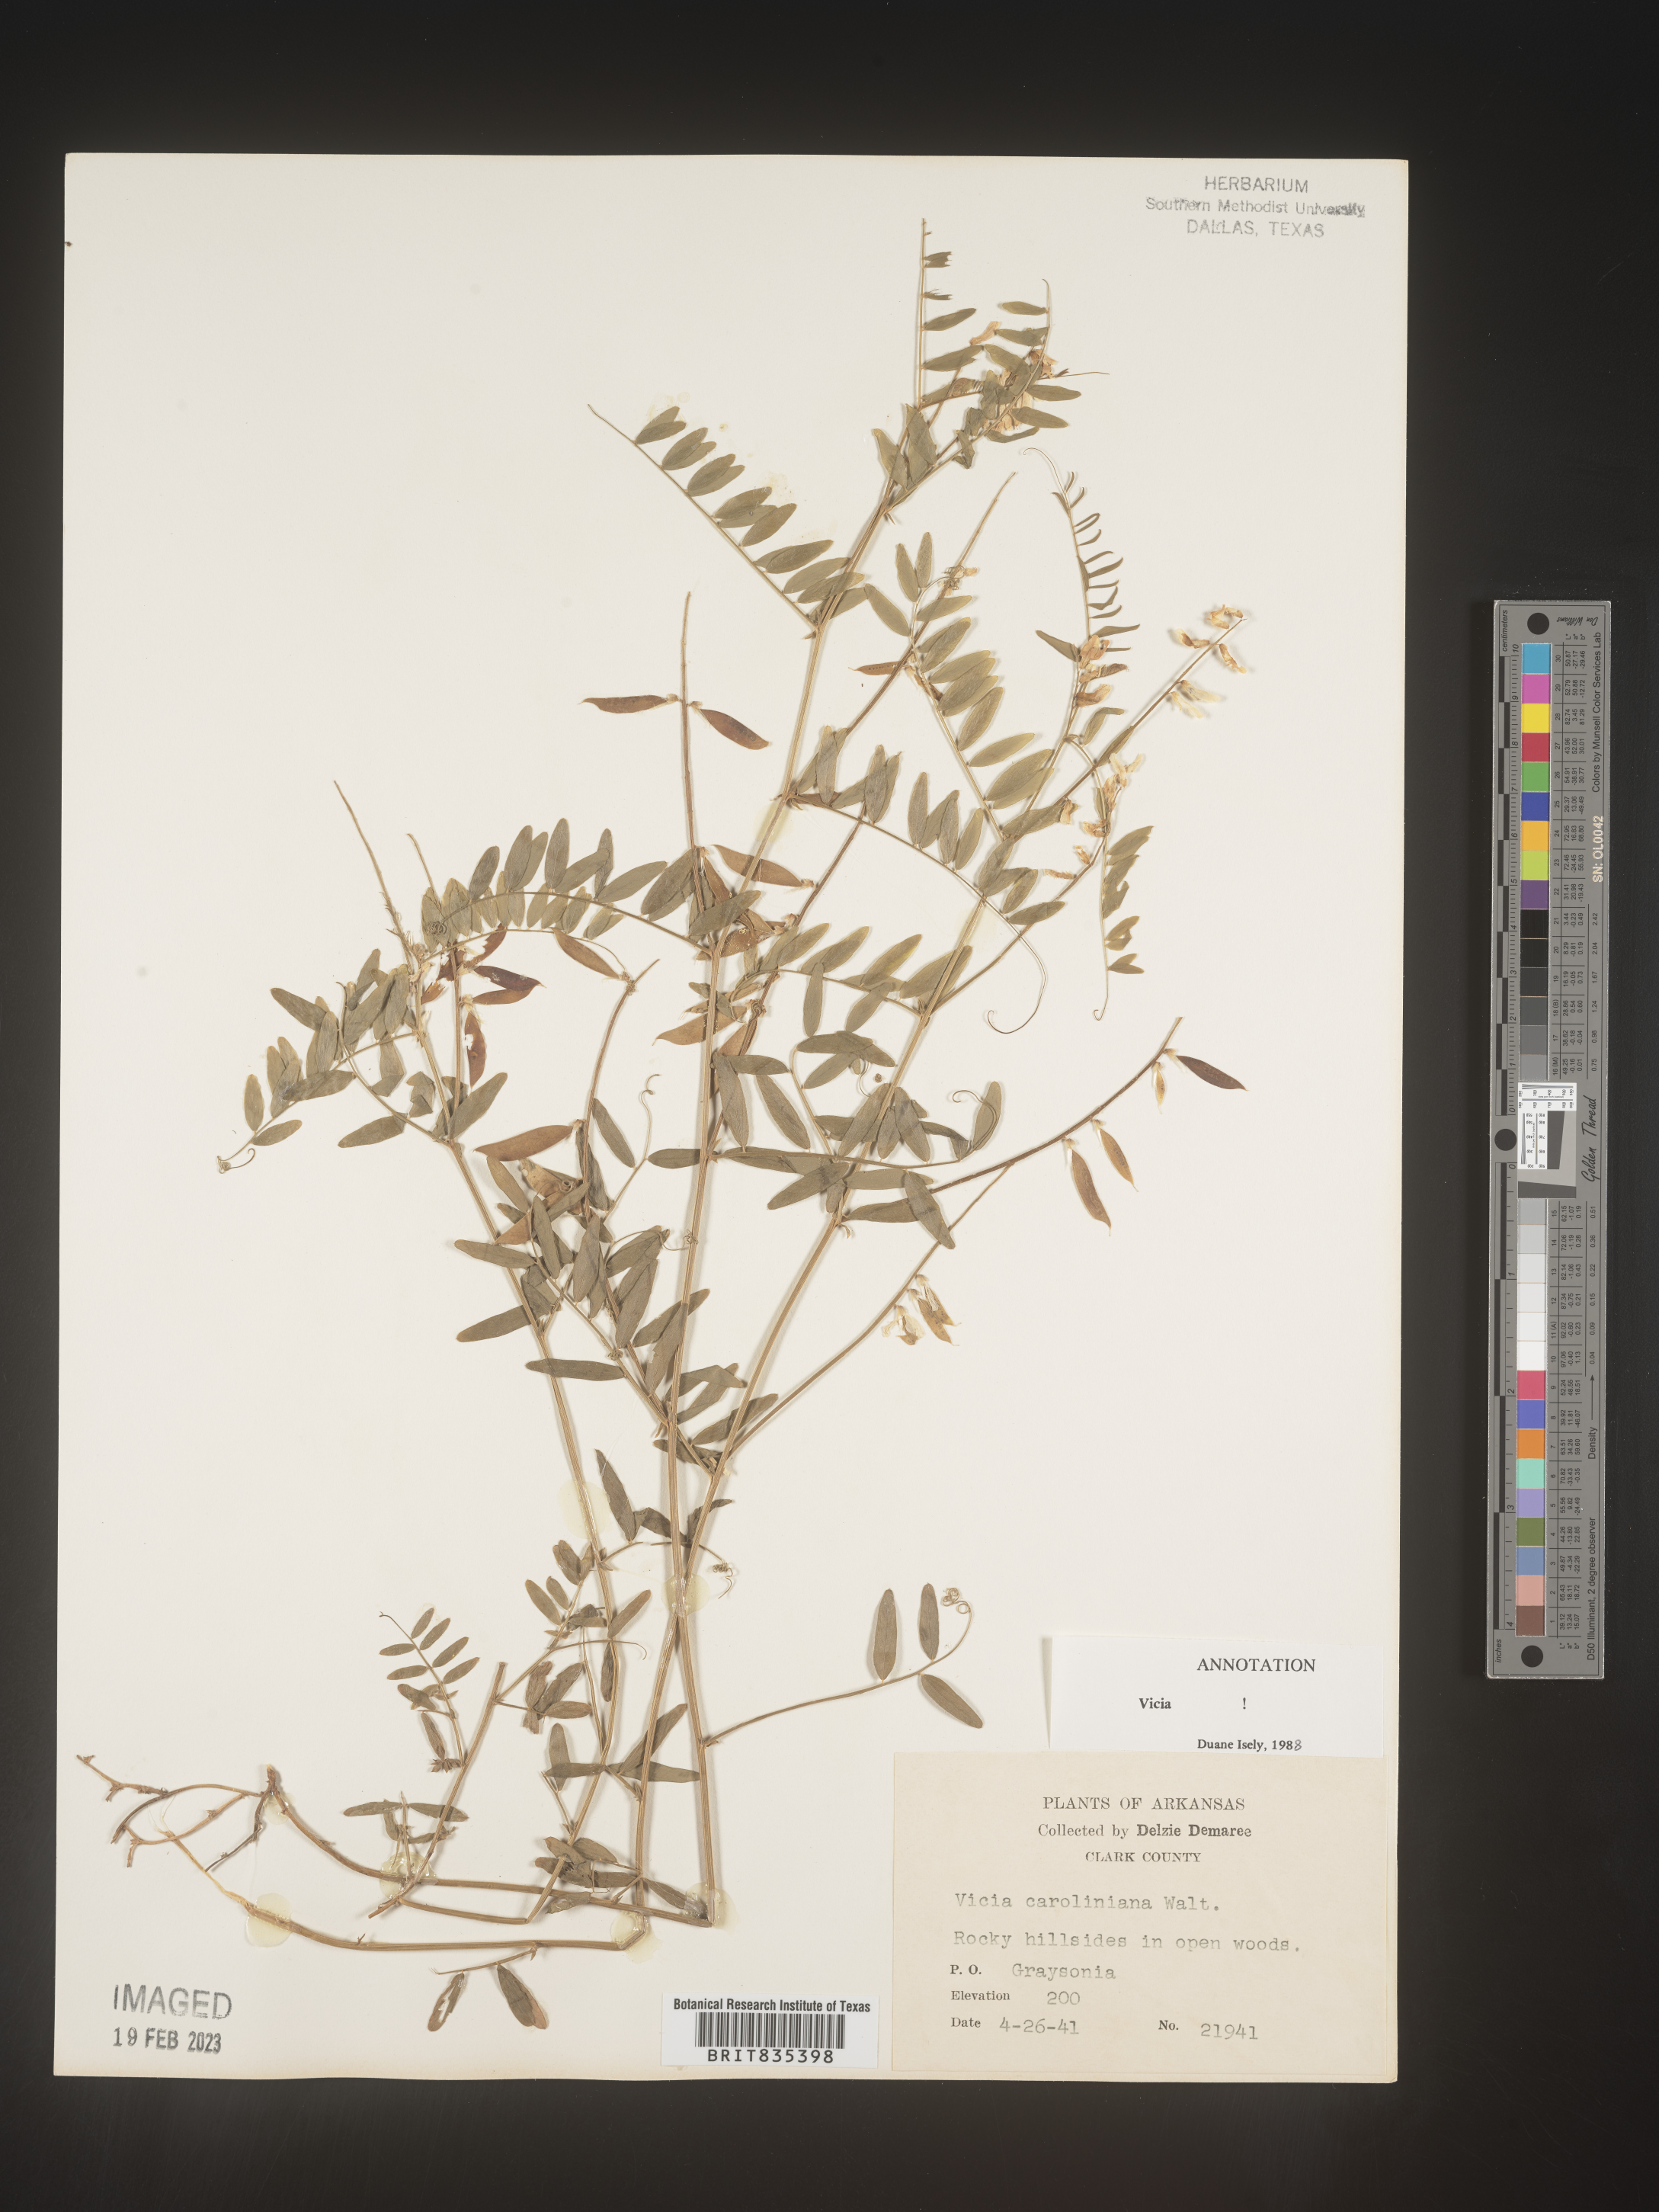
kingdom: Plantae
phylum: Tracheophyta
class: Magnoliopsida
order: Fabales
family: Fabaceae
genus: Vicia
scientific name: Vicia caroliniana
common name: Carolina vetch
